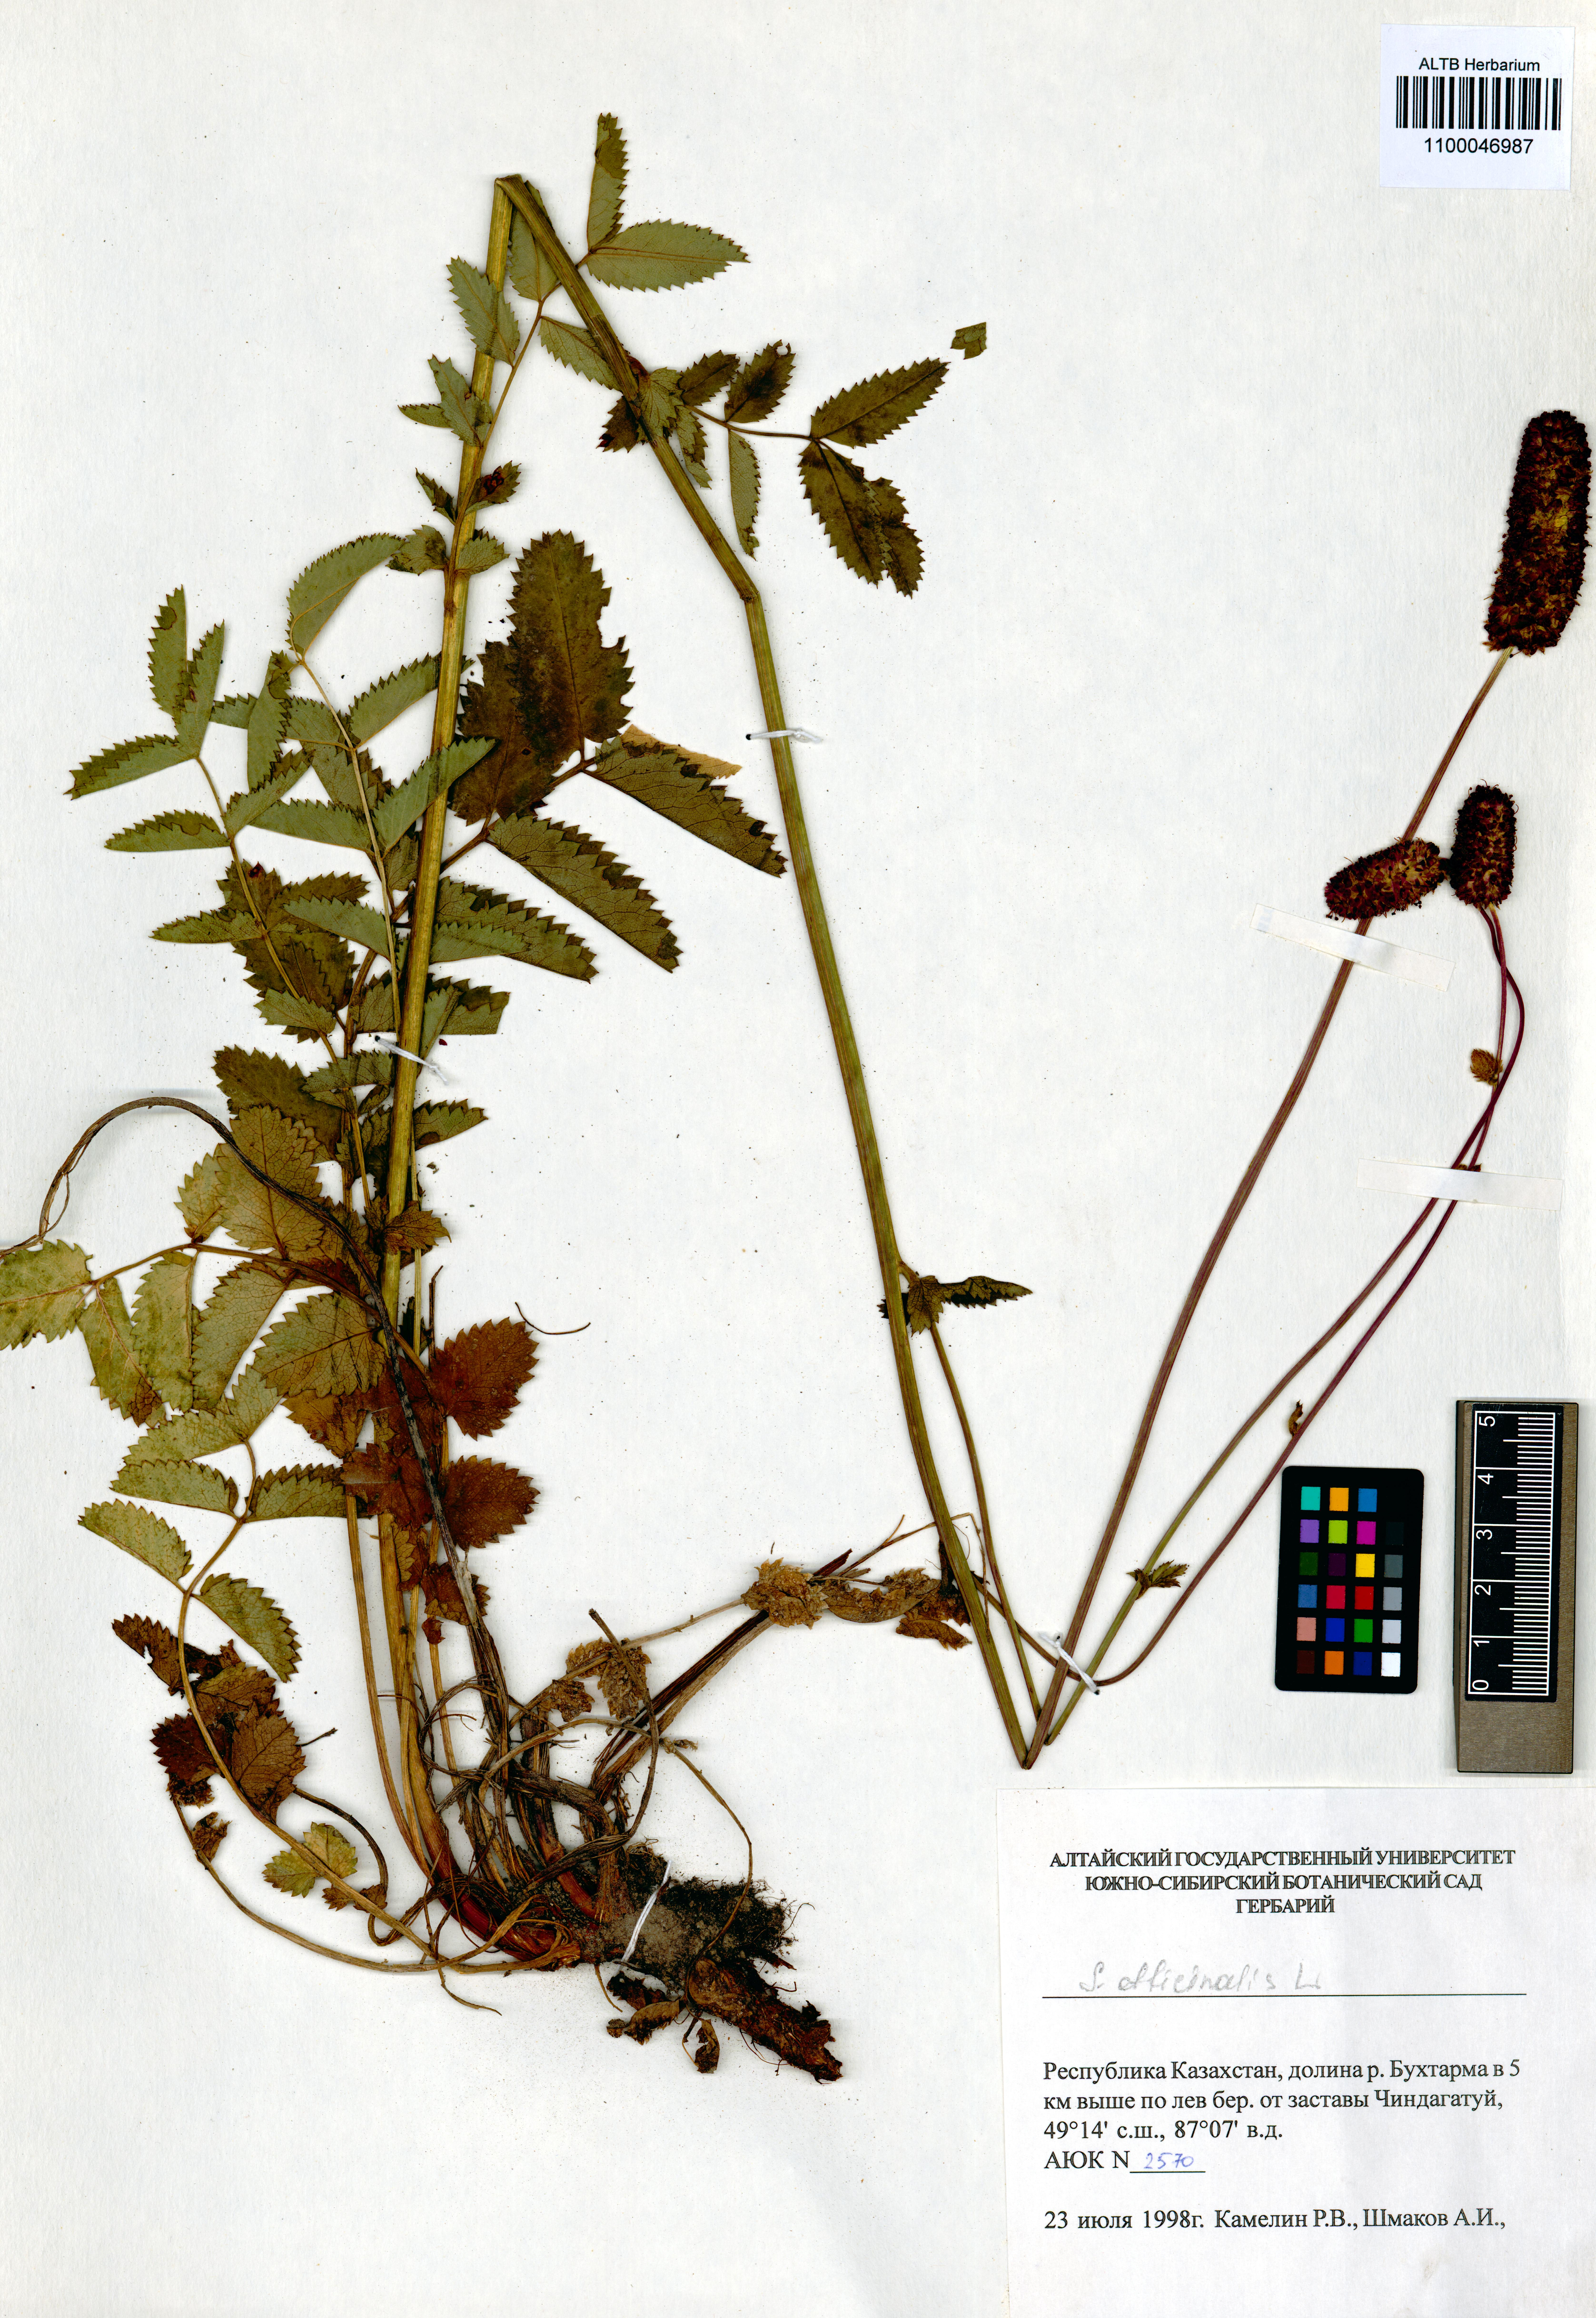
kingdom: Plantae
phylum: Tracheophyta
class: Magnoliopsida
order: Rosales
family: Rosaceae
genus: Sanguisorba
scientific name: Sanguisorba officinalis
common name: Great burnet
